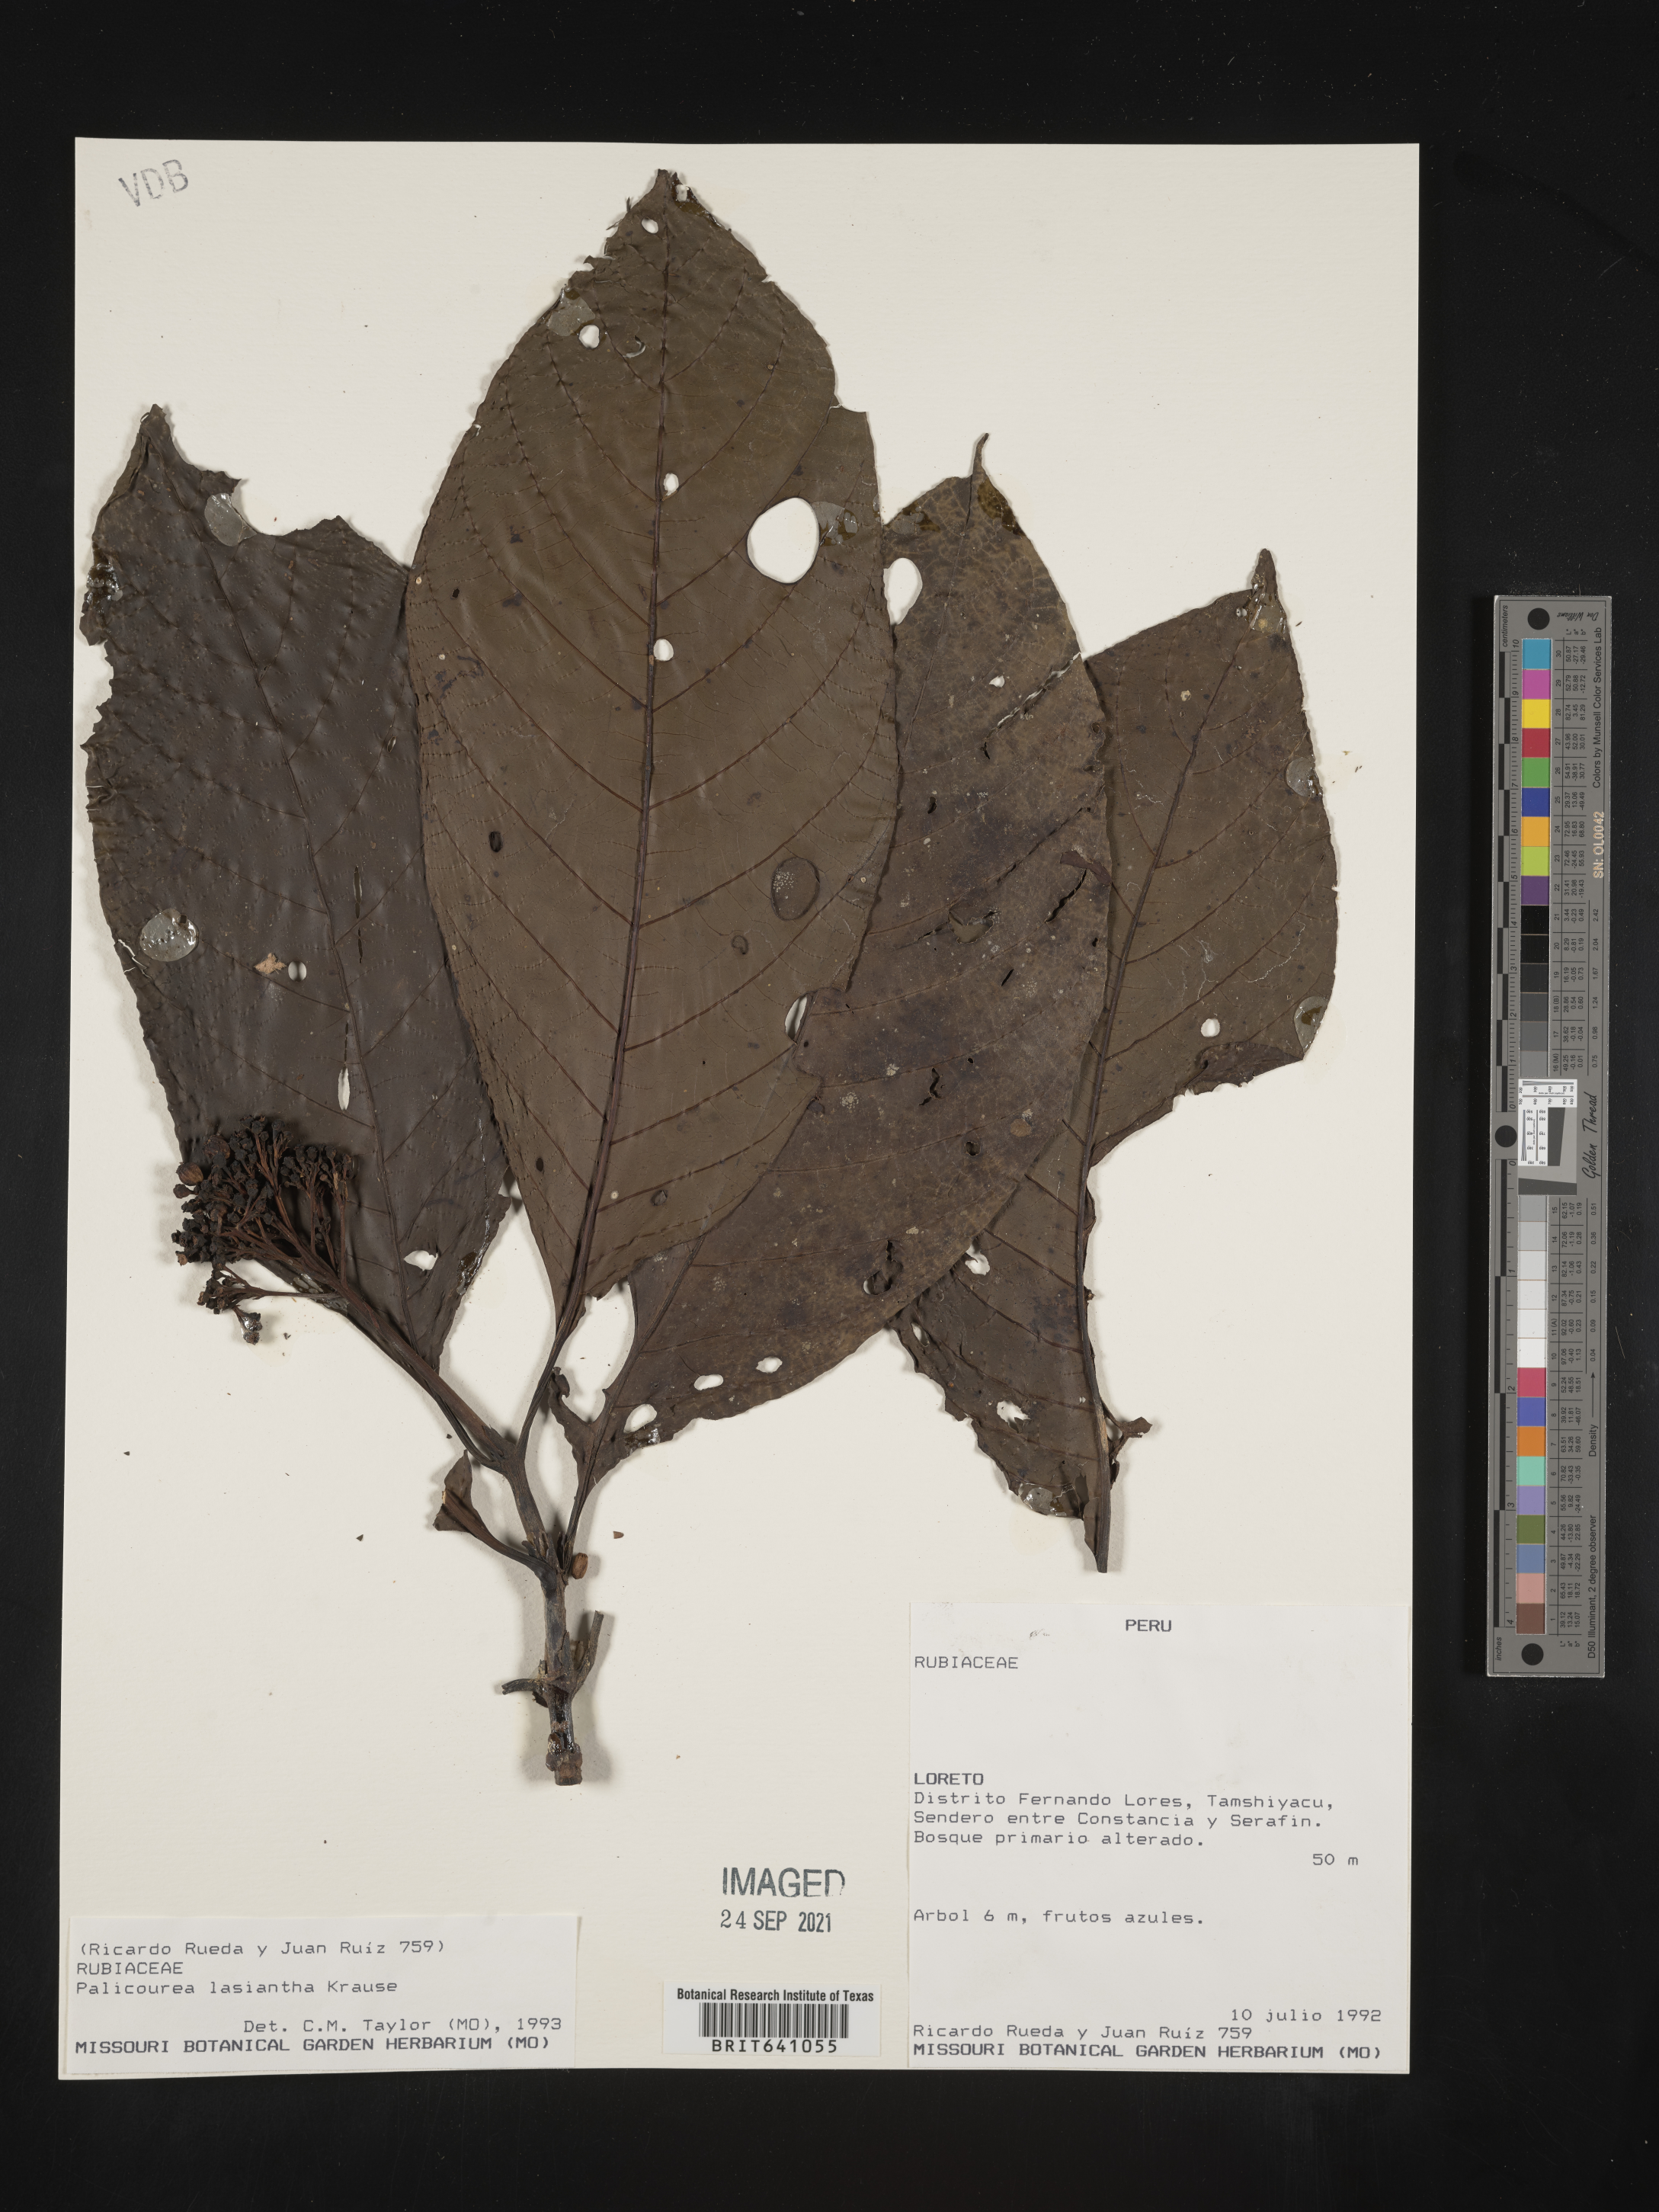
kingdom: Plantae
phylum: Tracheophyta
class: Magnoliopsida
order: Gentianales
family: Rubiaceae
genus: Palicourea
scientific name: Palicourea
